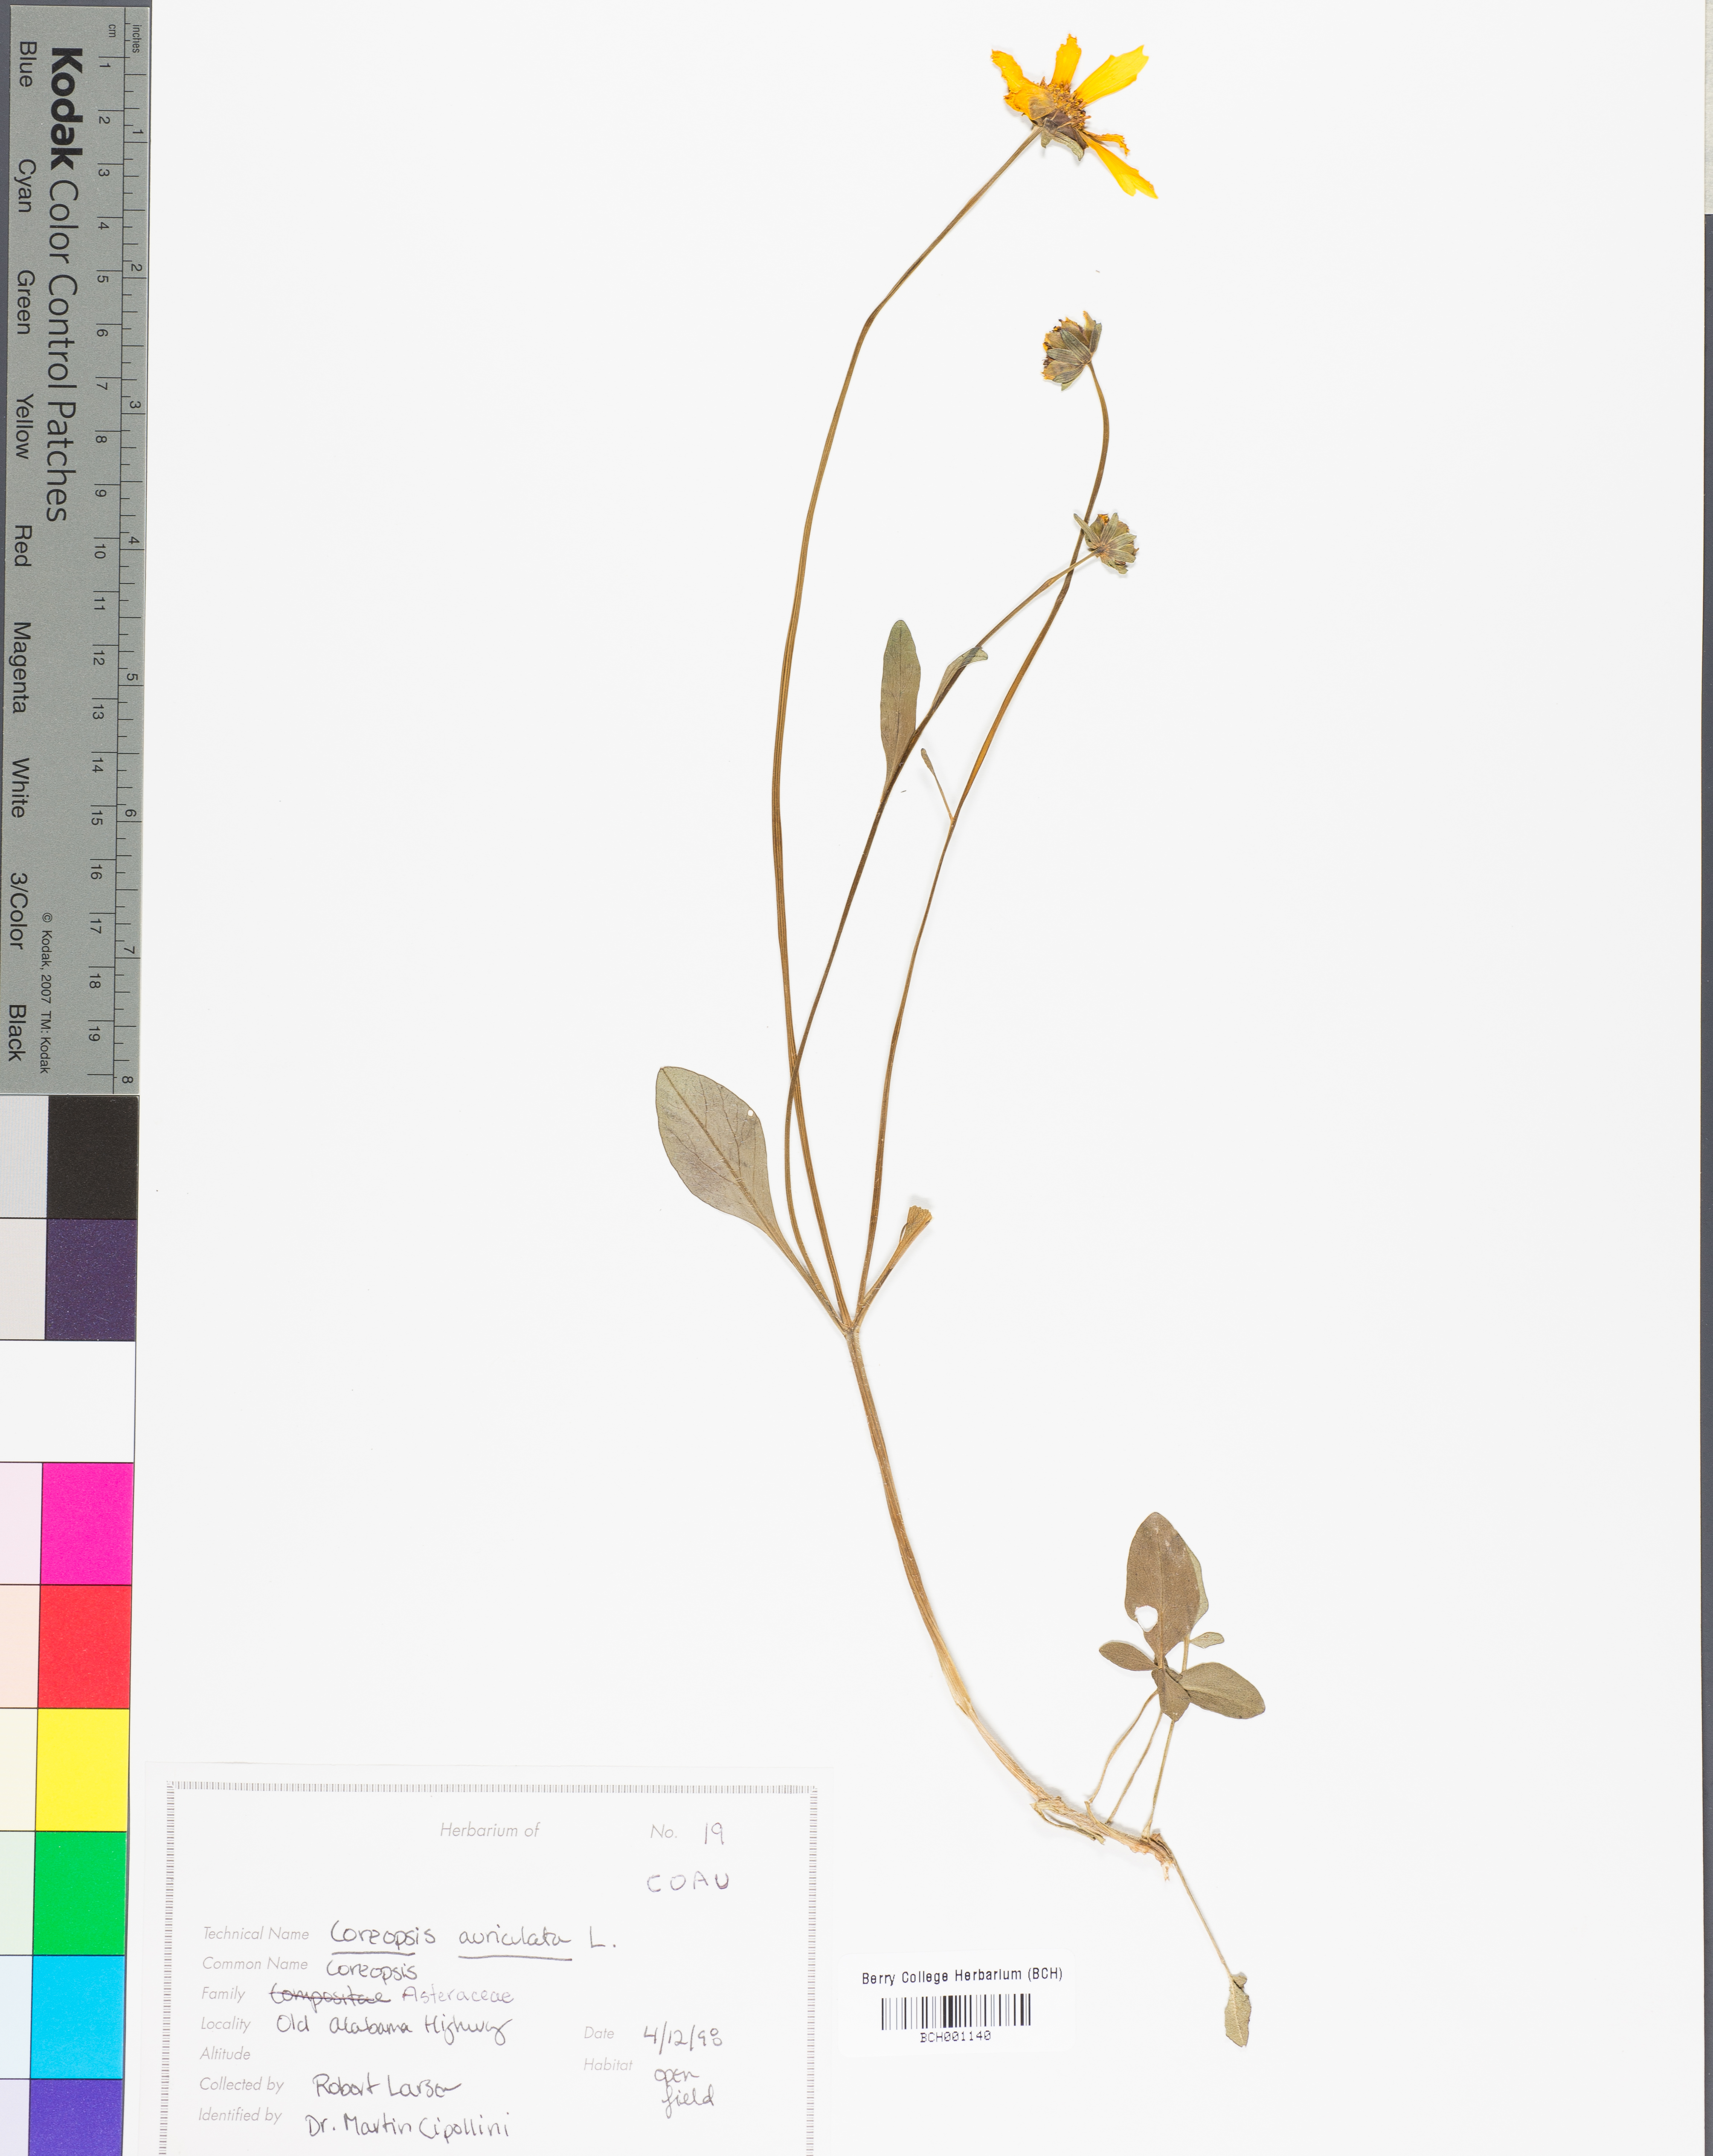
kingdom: Plantae
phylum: Tracheophyta
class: Magnoliopsida
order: Asterales
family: Asteraceae
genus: Coreopsis
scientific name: Coreopsis auriculata
